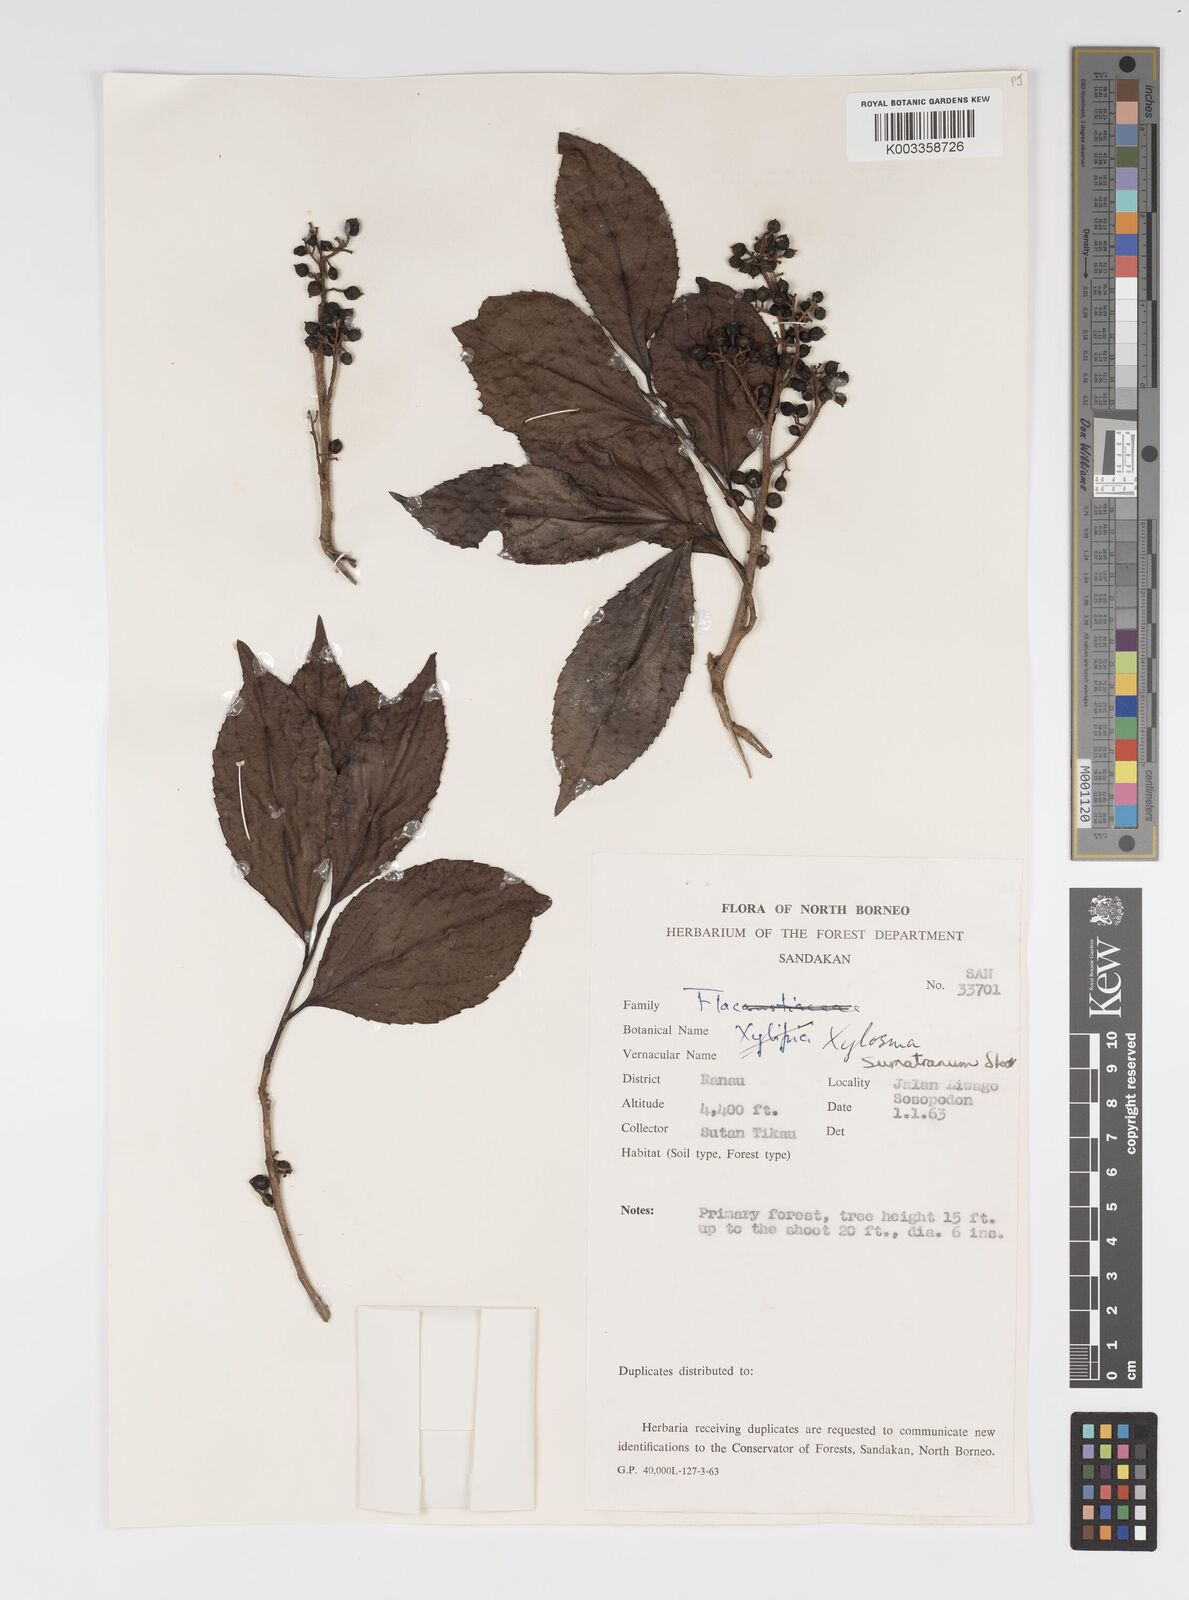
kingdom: Plantae
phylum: Tracheophyta
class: Magnoliopsida
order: Malpighiales
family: Salicaceae
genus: Xylosma
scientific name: Xylosma sumatrana
